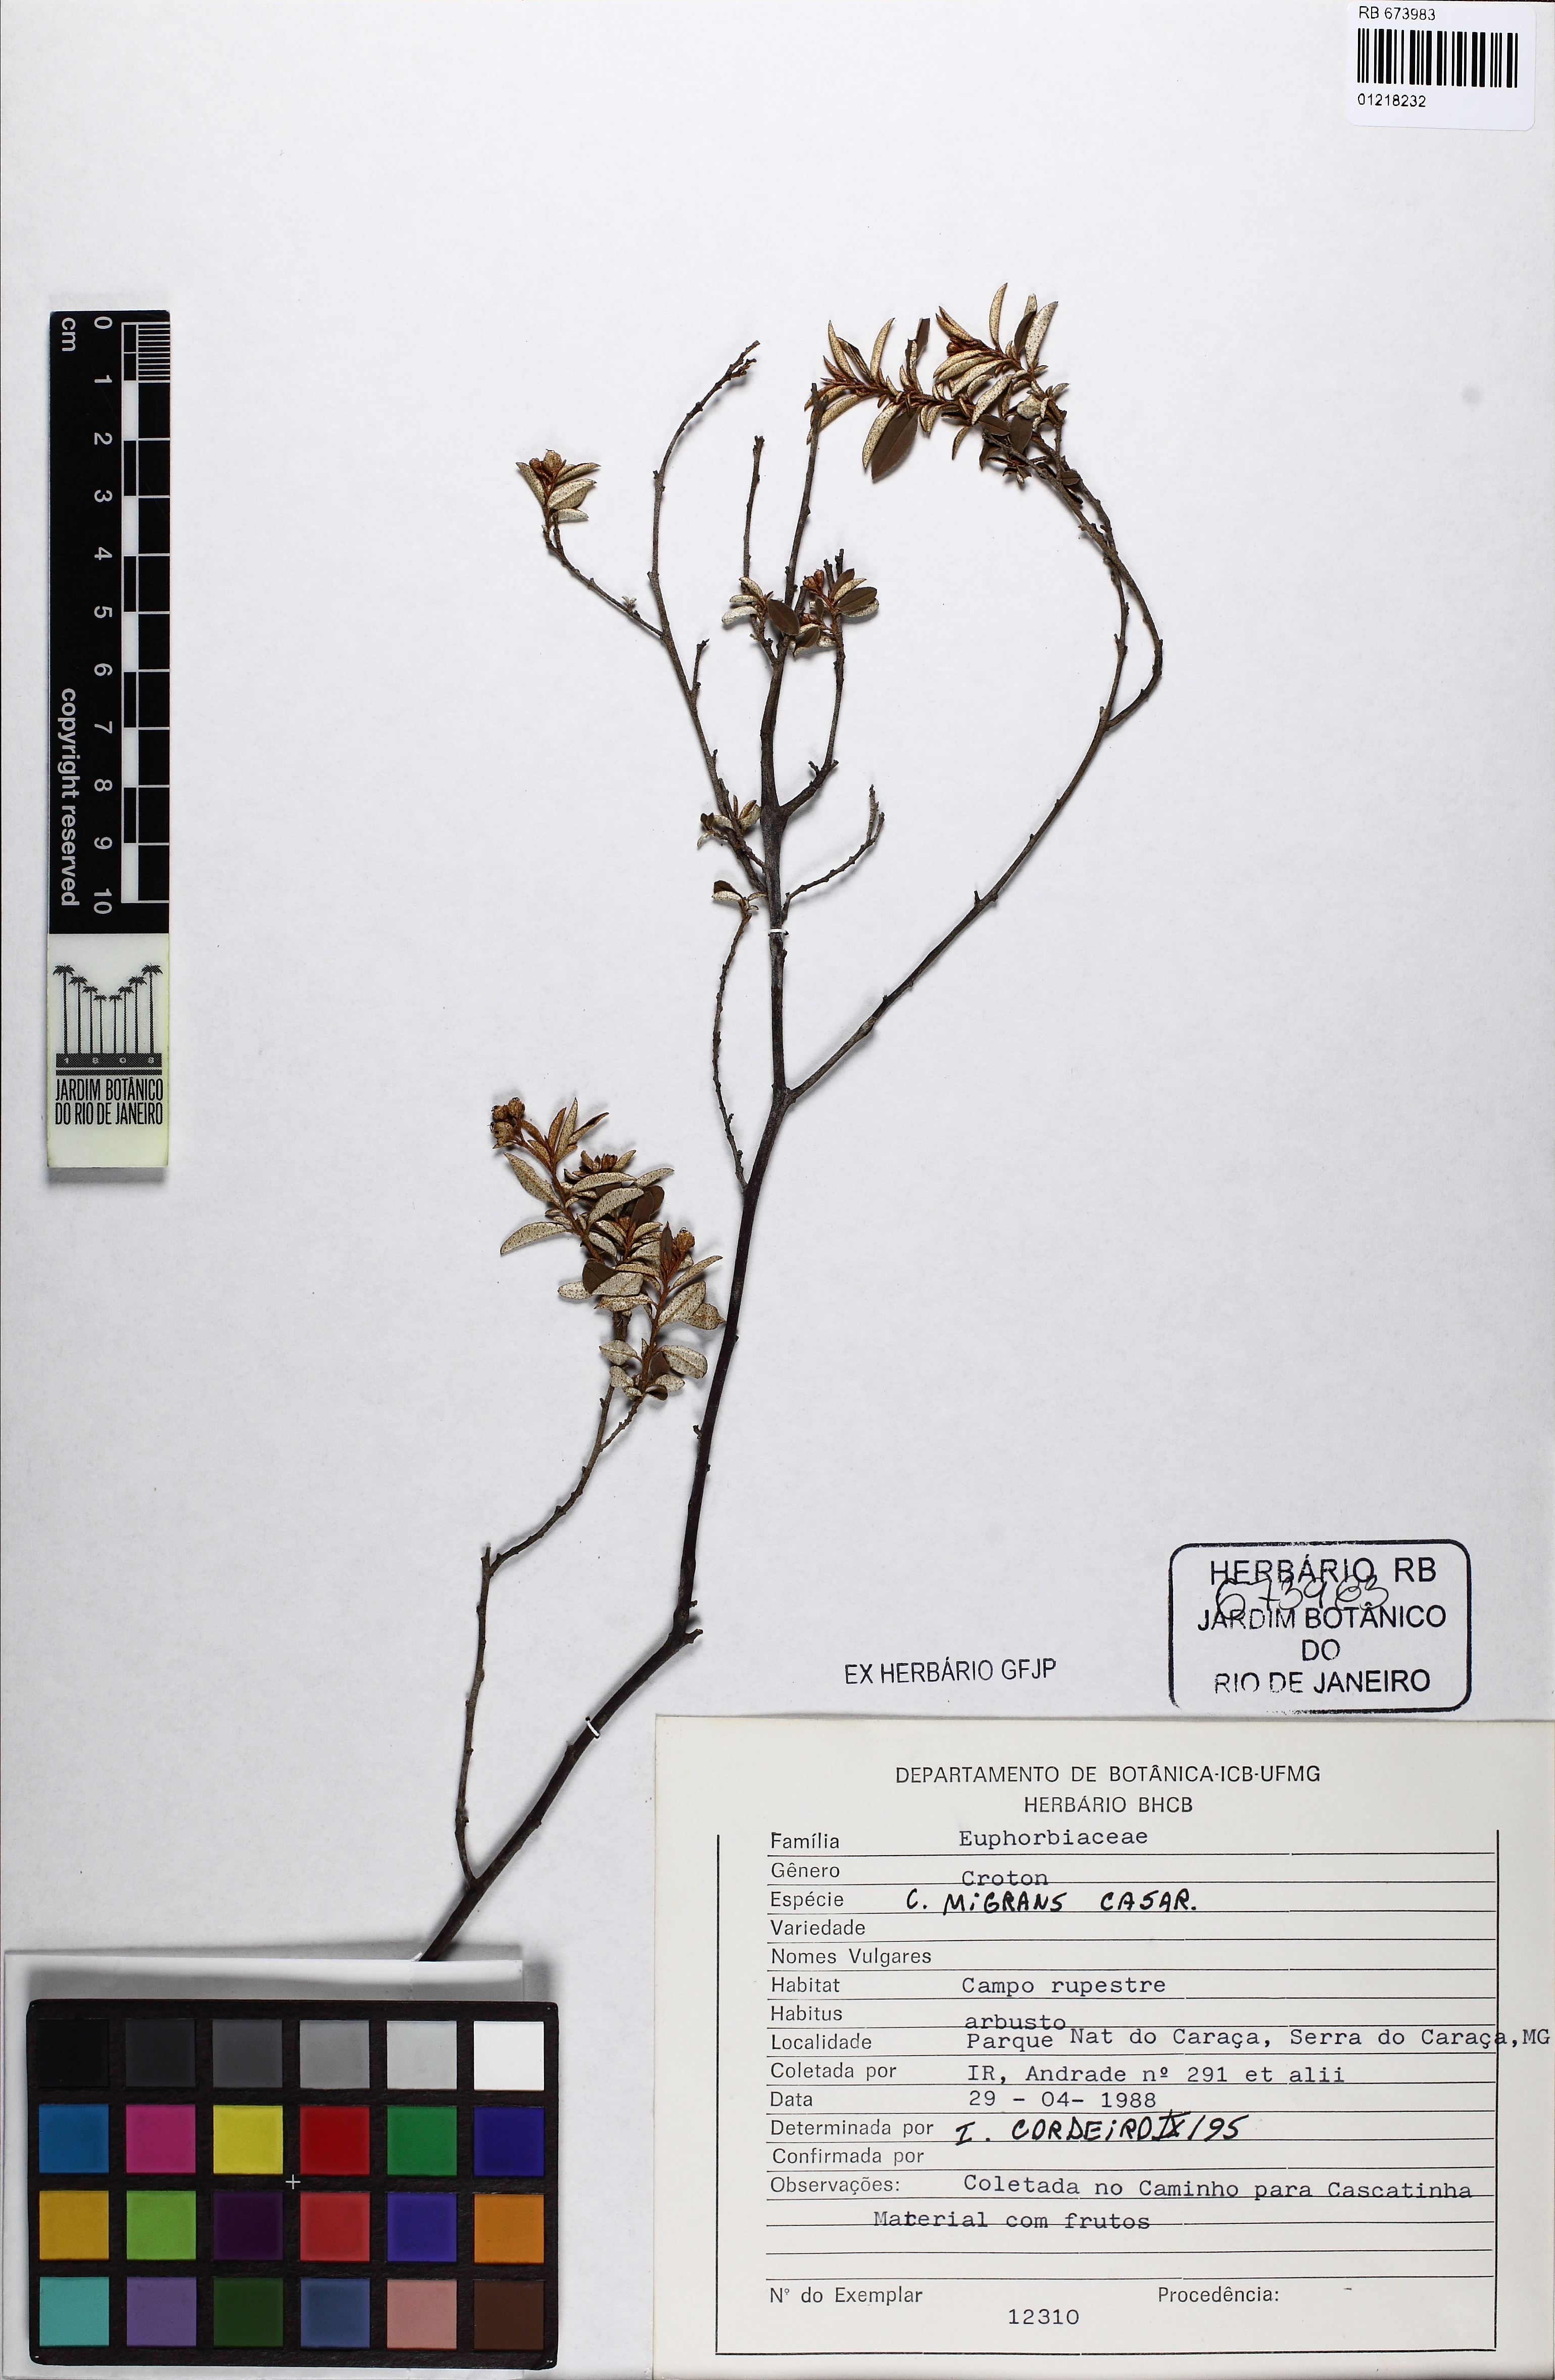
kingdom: Plantae
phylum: Tracheophyta
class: Magnoliopsida
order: Malpighiales
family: Euphorbiaceae
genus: Croton
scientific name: Croton splendidus
